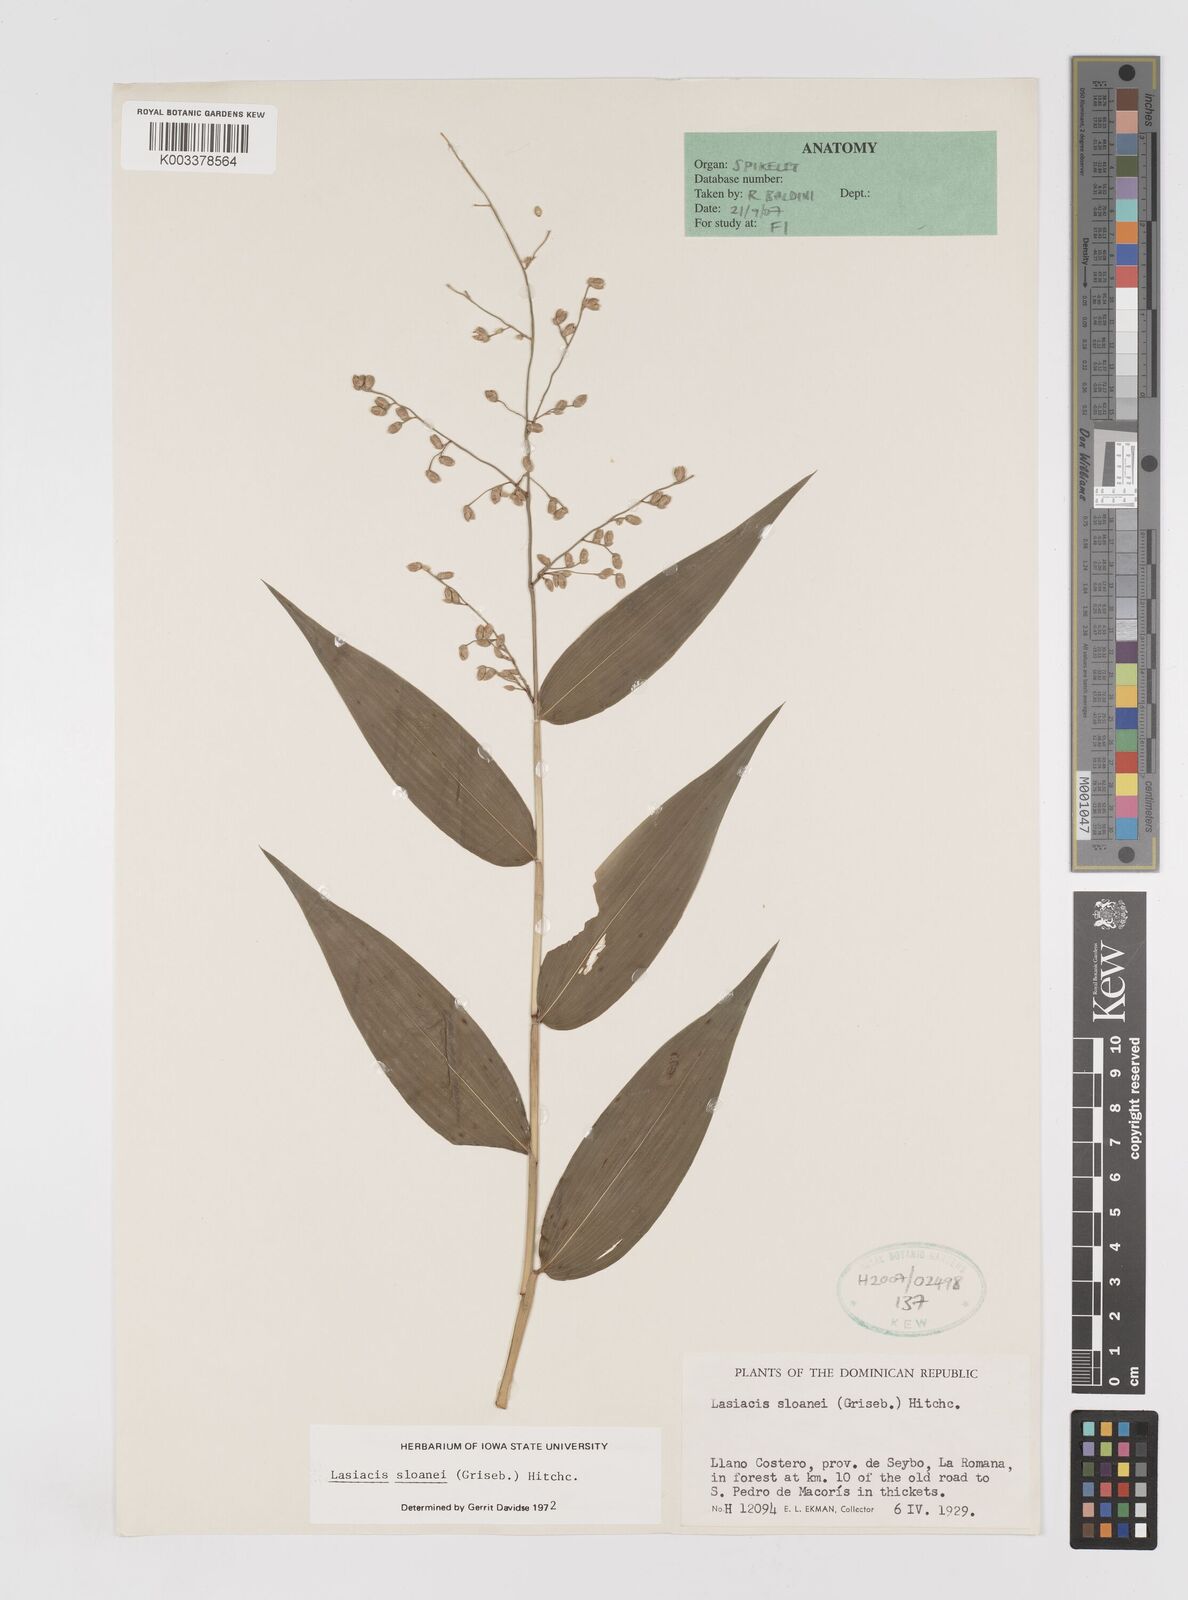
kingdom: Plantae
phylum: Tracheophyta
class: Liliopsida
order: Poales
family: Poaceae
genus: Lasiacis
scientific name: Lasiacis sloanei
